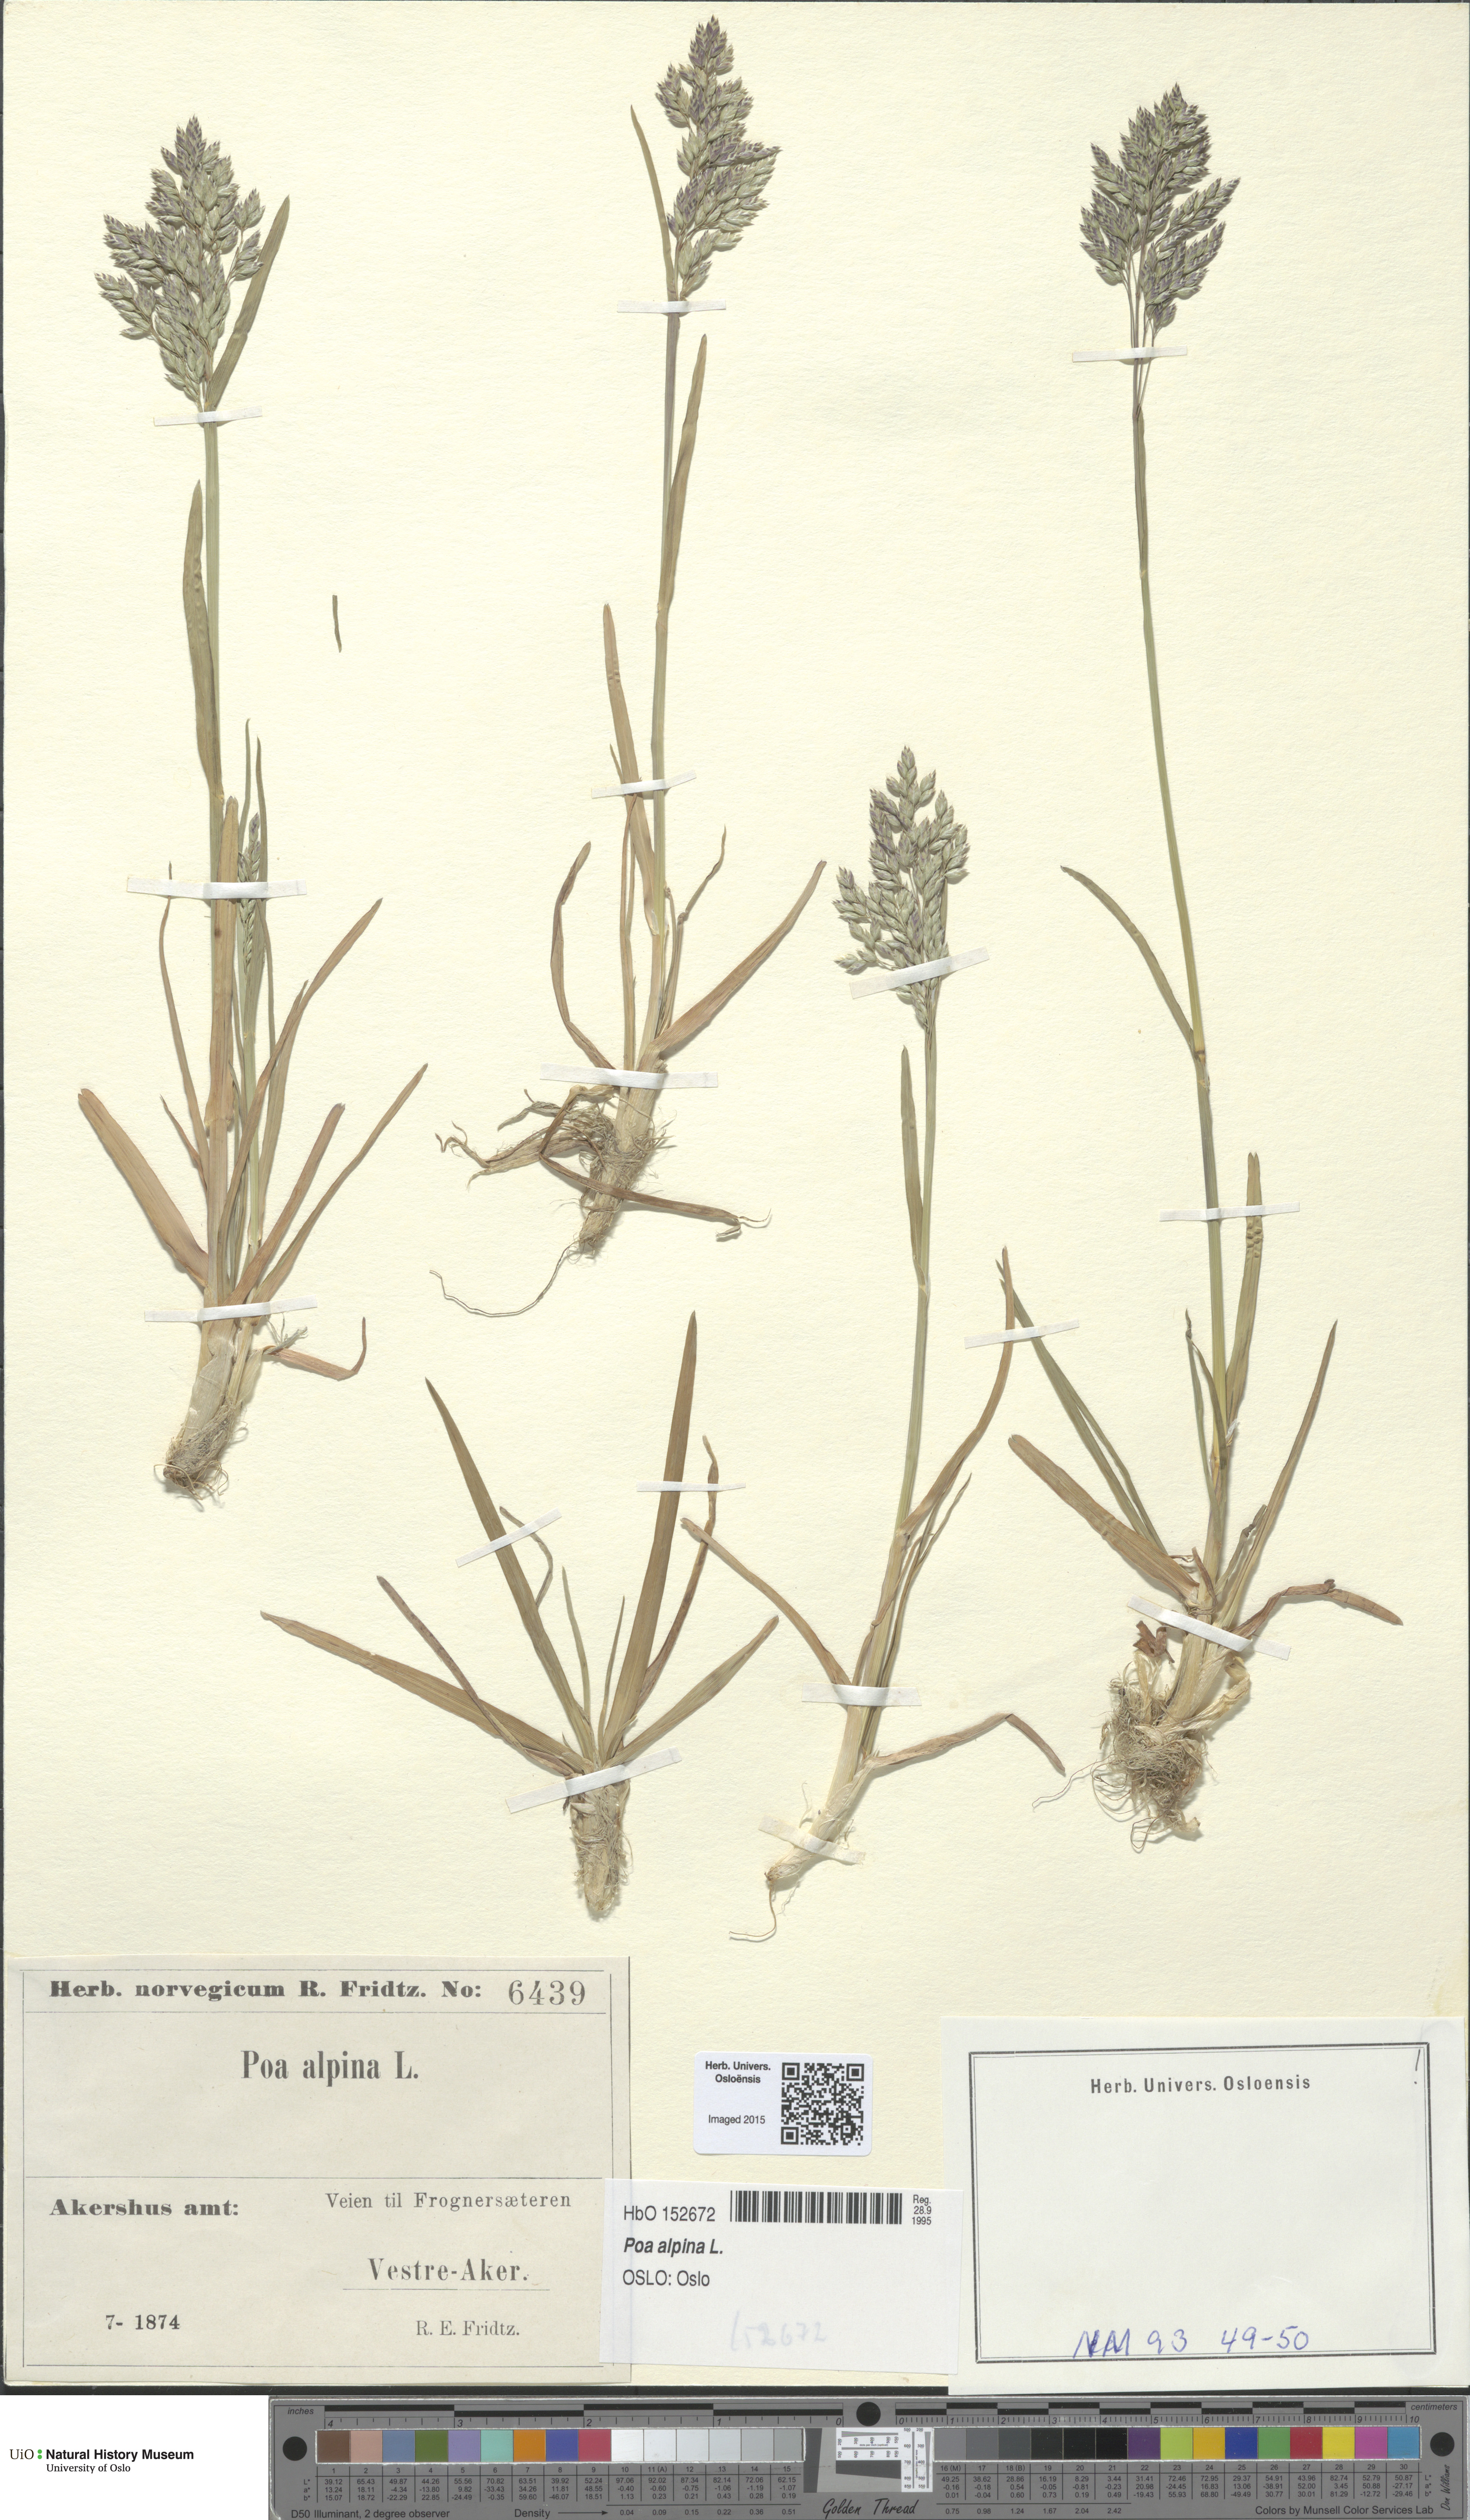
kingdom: Plantae
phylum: Tracheophyta
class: Liliopsida
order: Poales
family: Poaceae
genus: Poa
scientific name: Poa alpina
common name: Alpine bluegrass
